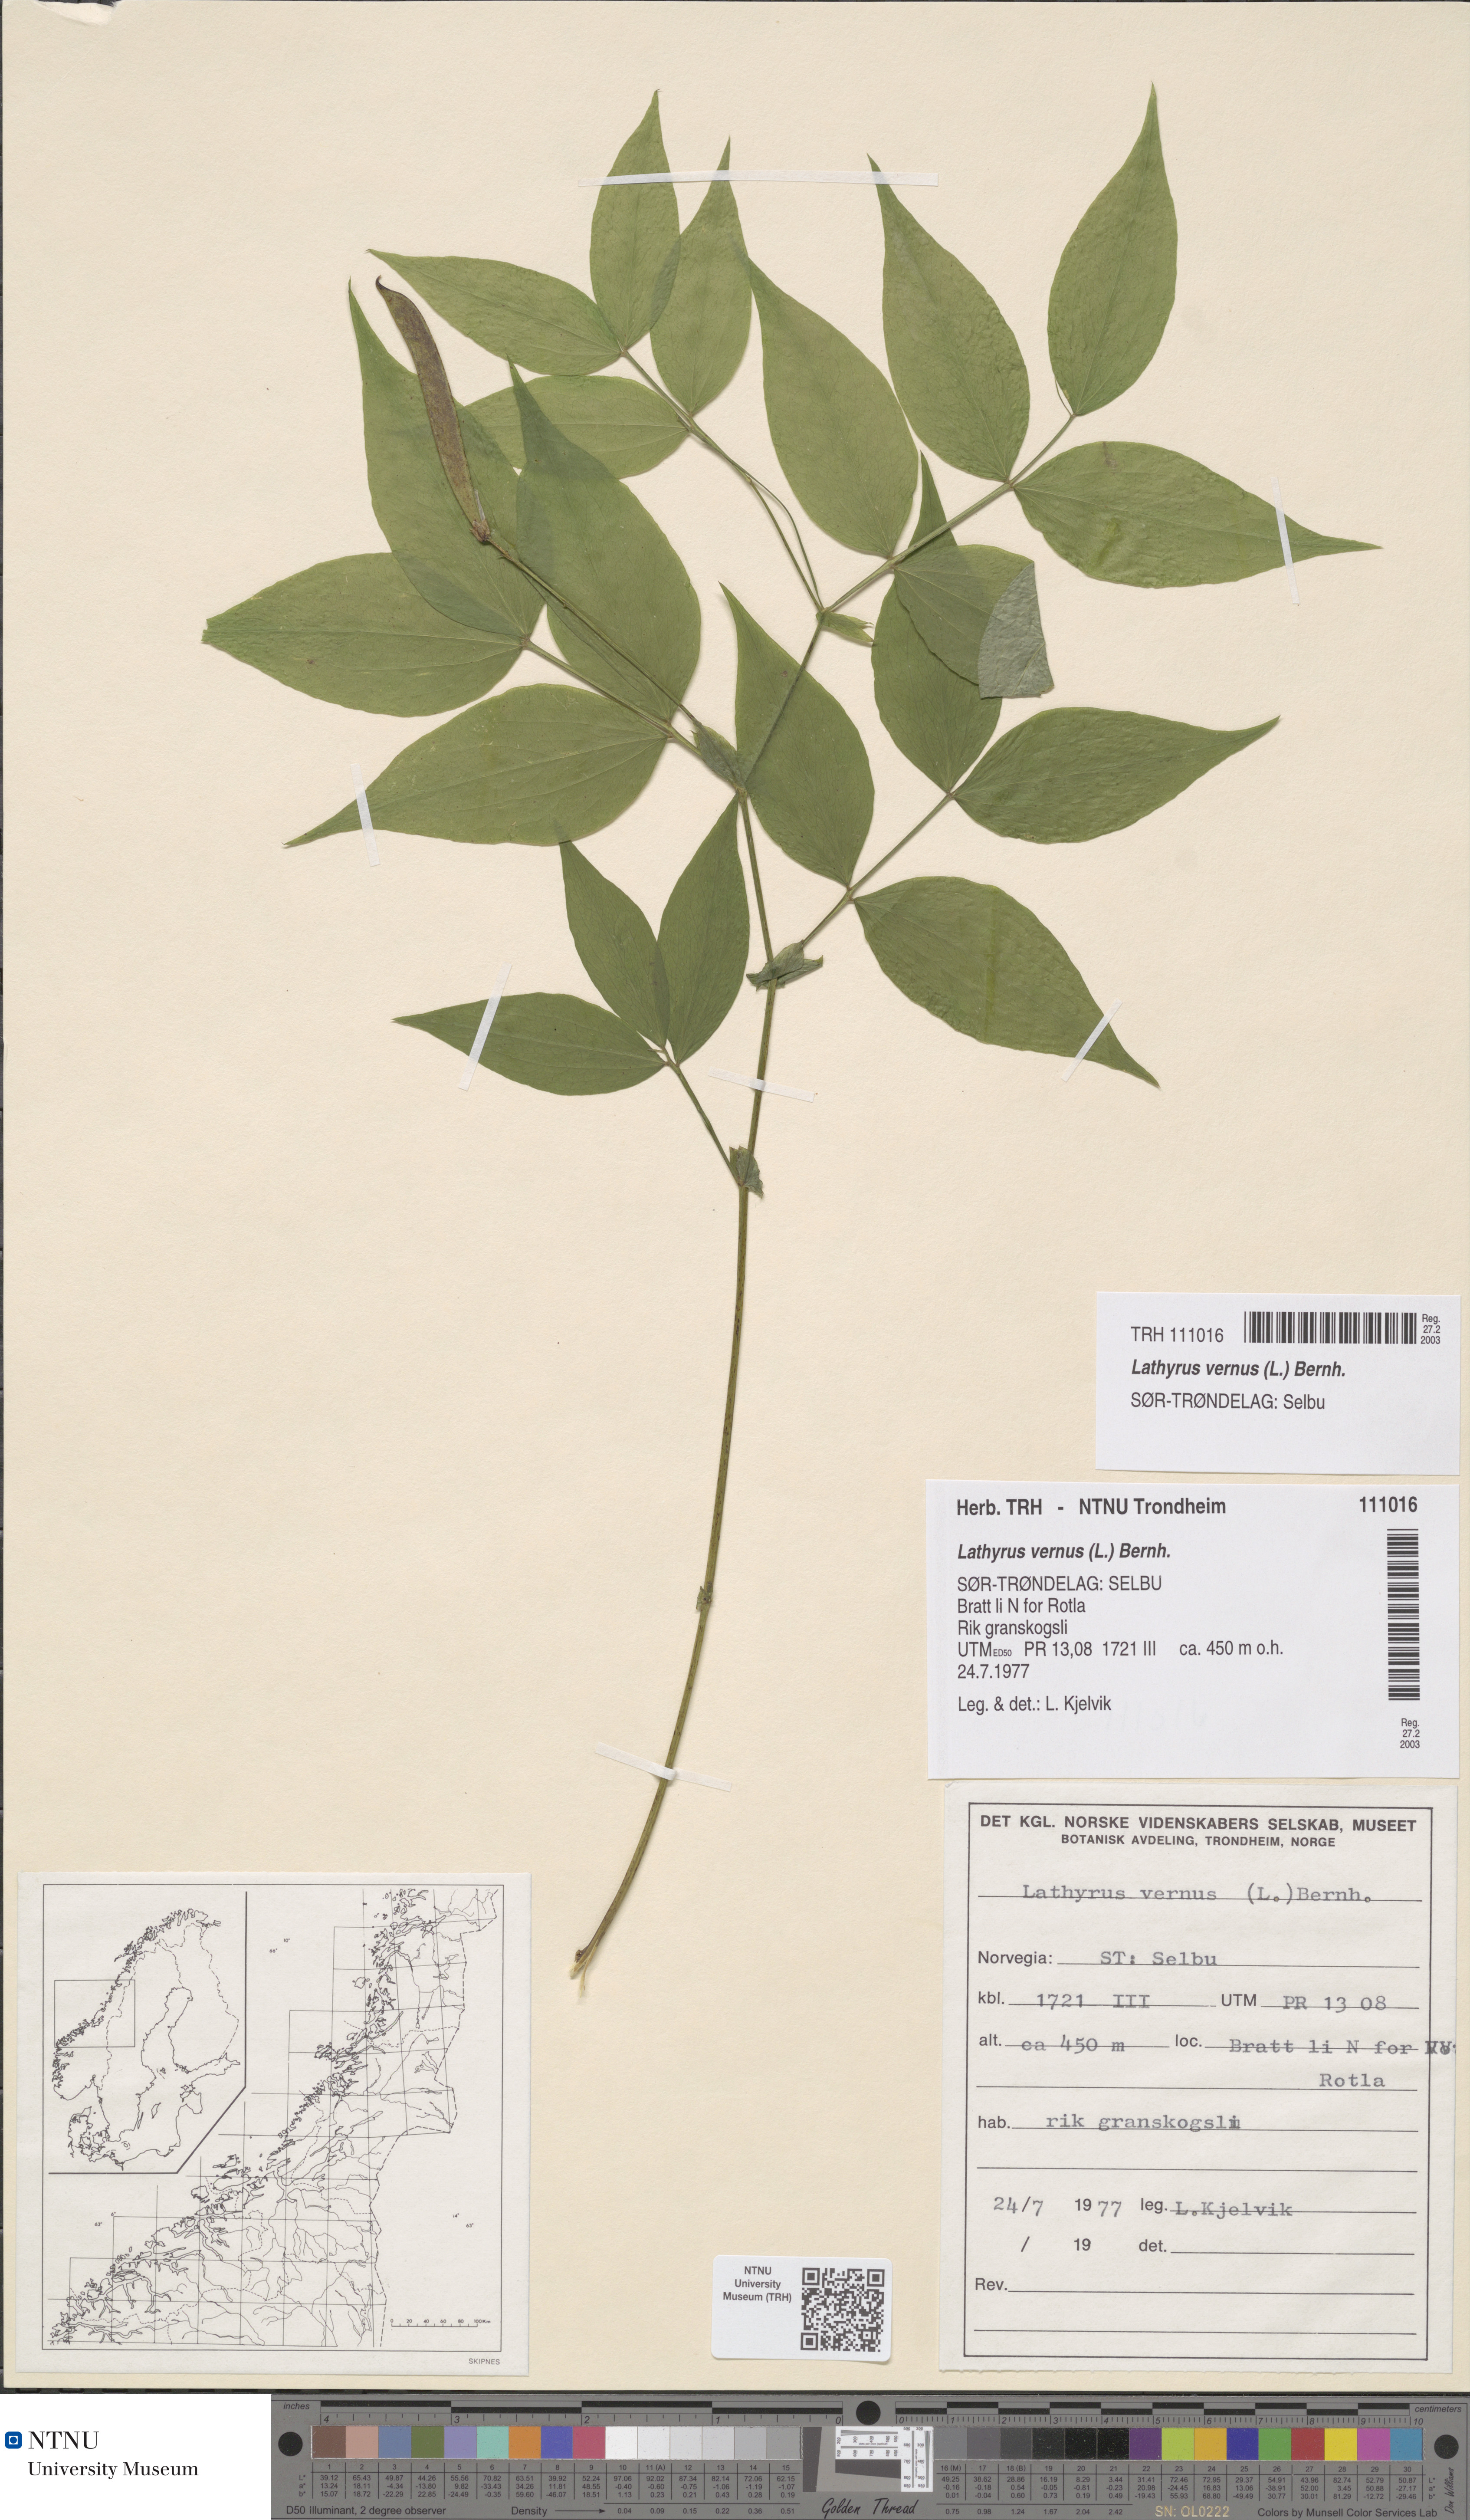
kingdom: Plantae
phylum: Tracheophyta
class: Magnoliopsida
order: Fabales
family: Fabaceae
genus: Lathyrus
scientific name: Lathyrus vernus
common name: Spring pea
